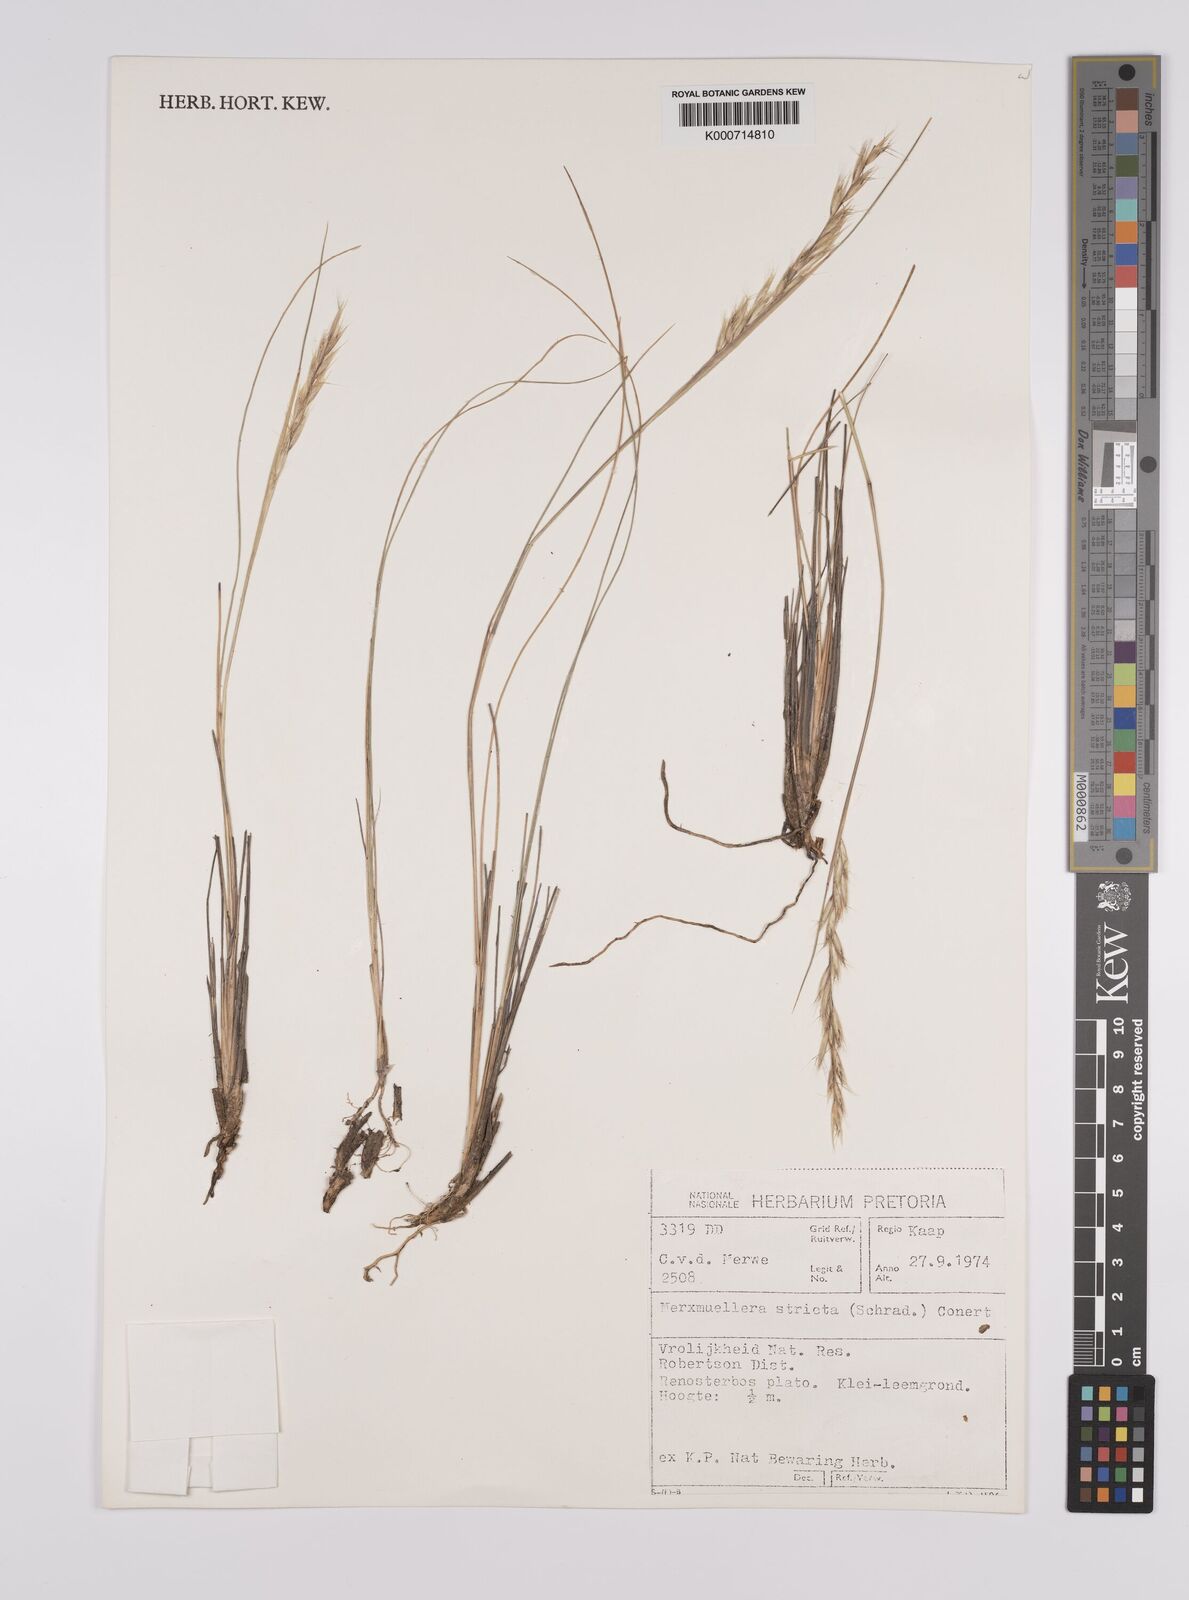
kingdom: Plantae
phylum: Tracheophyta
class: Liliopsida
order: Poales
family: Poaceae
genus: Rytidosperma
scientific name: Rytidosperma
